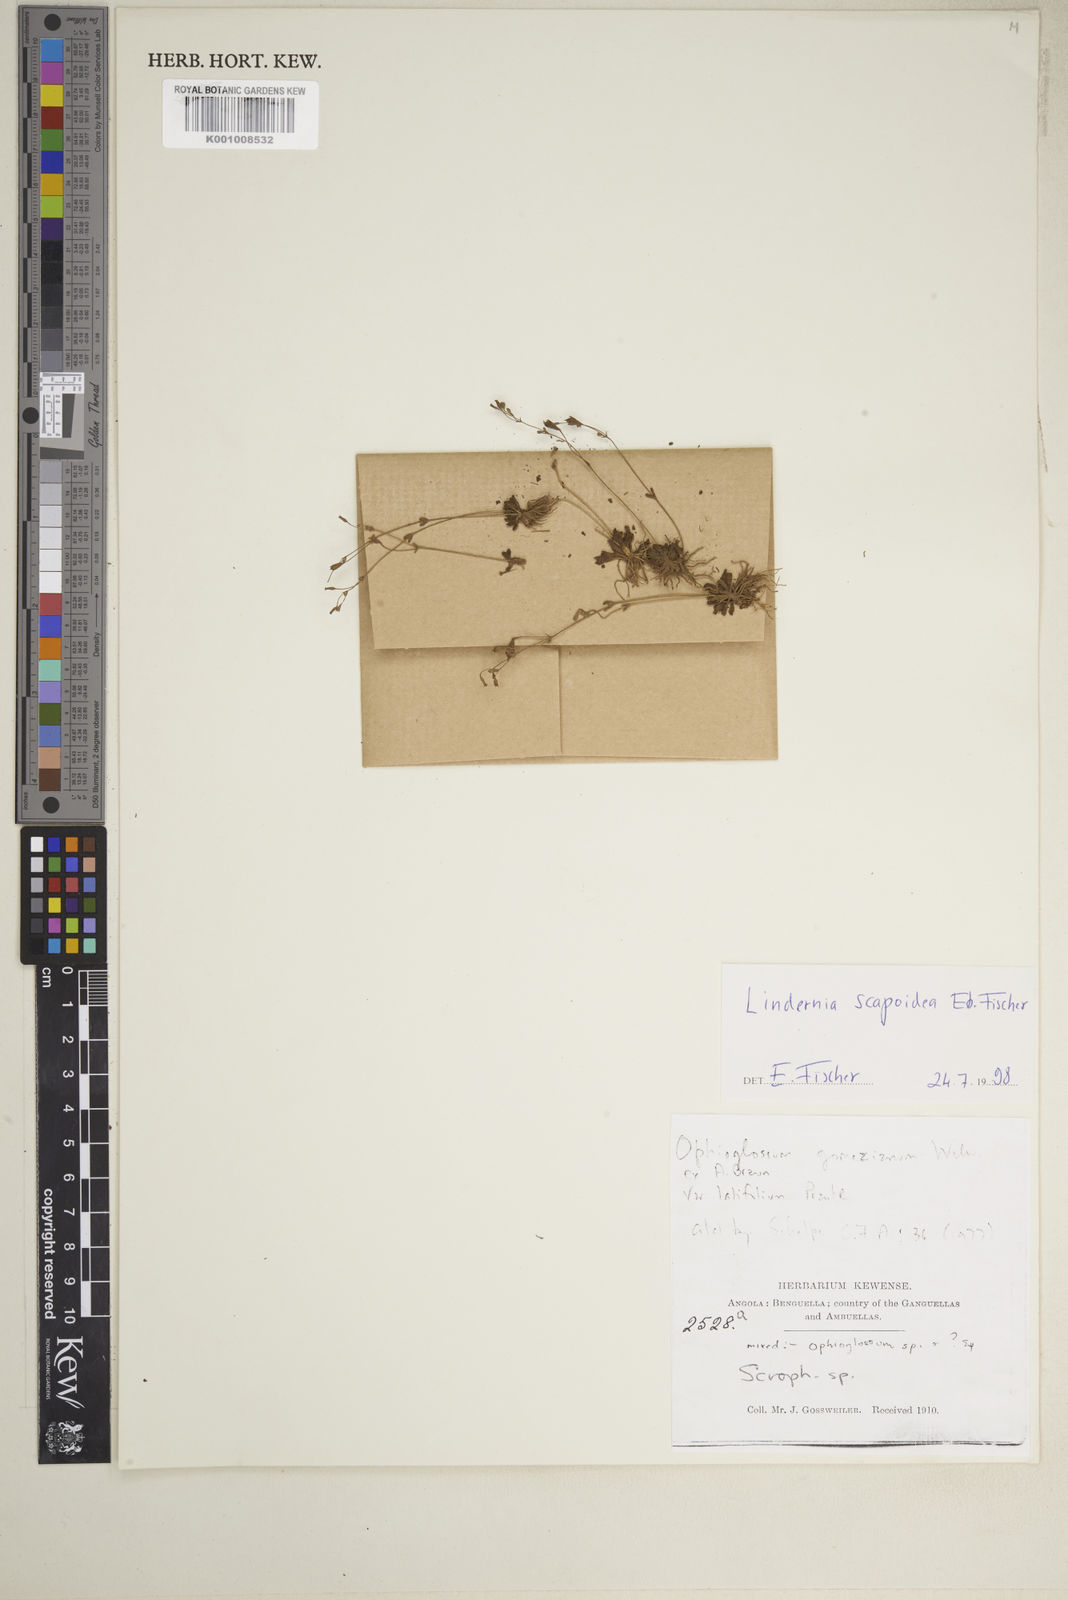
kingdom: Plantae
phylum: Tracheophyta
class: Magnoliopsida
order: Lamiales
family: Linderniaceae
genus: Craterostigma
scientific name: Craterostigma gossweileri
